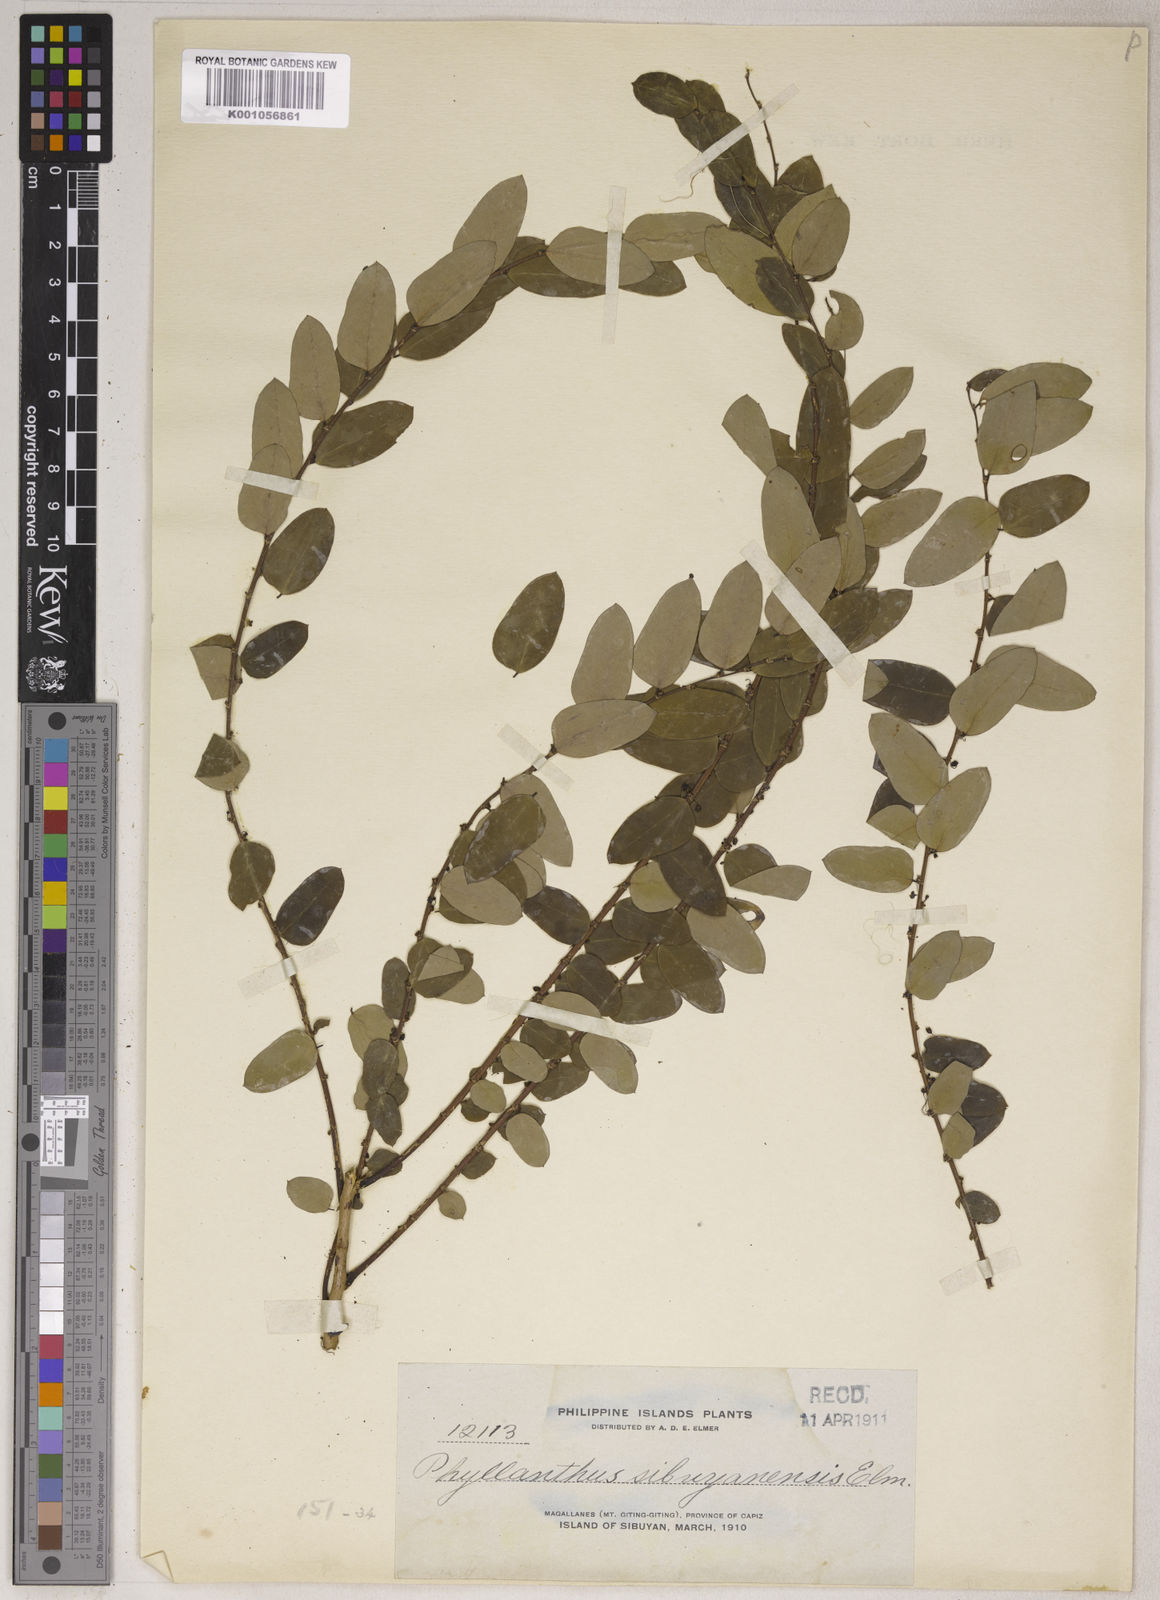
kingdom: Plantae
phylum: Tracheophyta
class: Magnoliopsida
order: Malpighiales
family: Phyllanthaceae
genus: Phyllanthus
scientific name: Phyllanthus sibuyanensis
